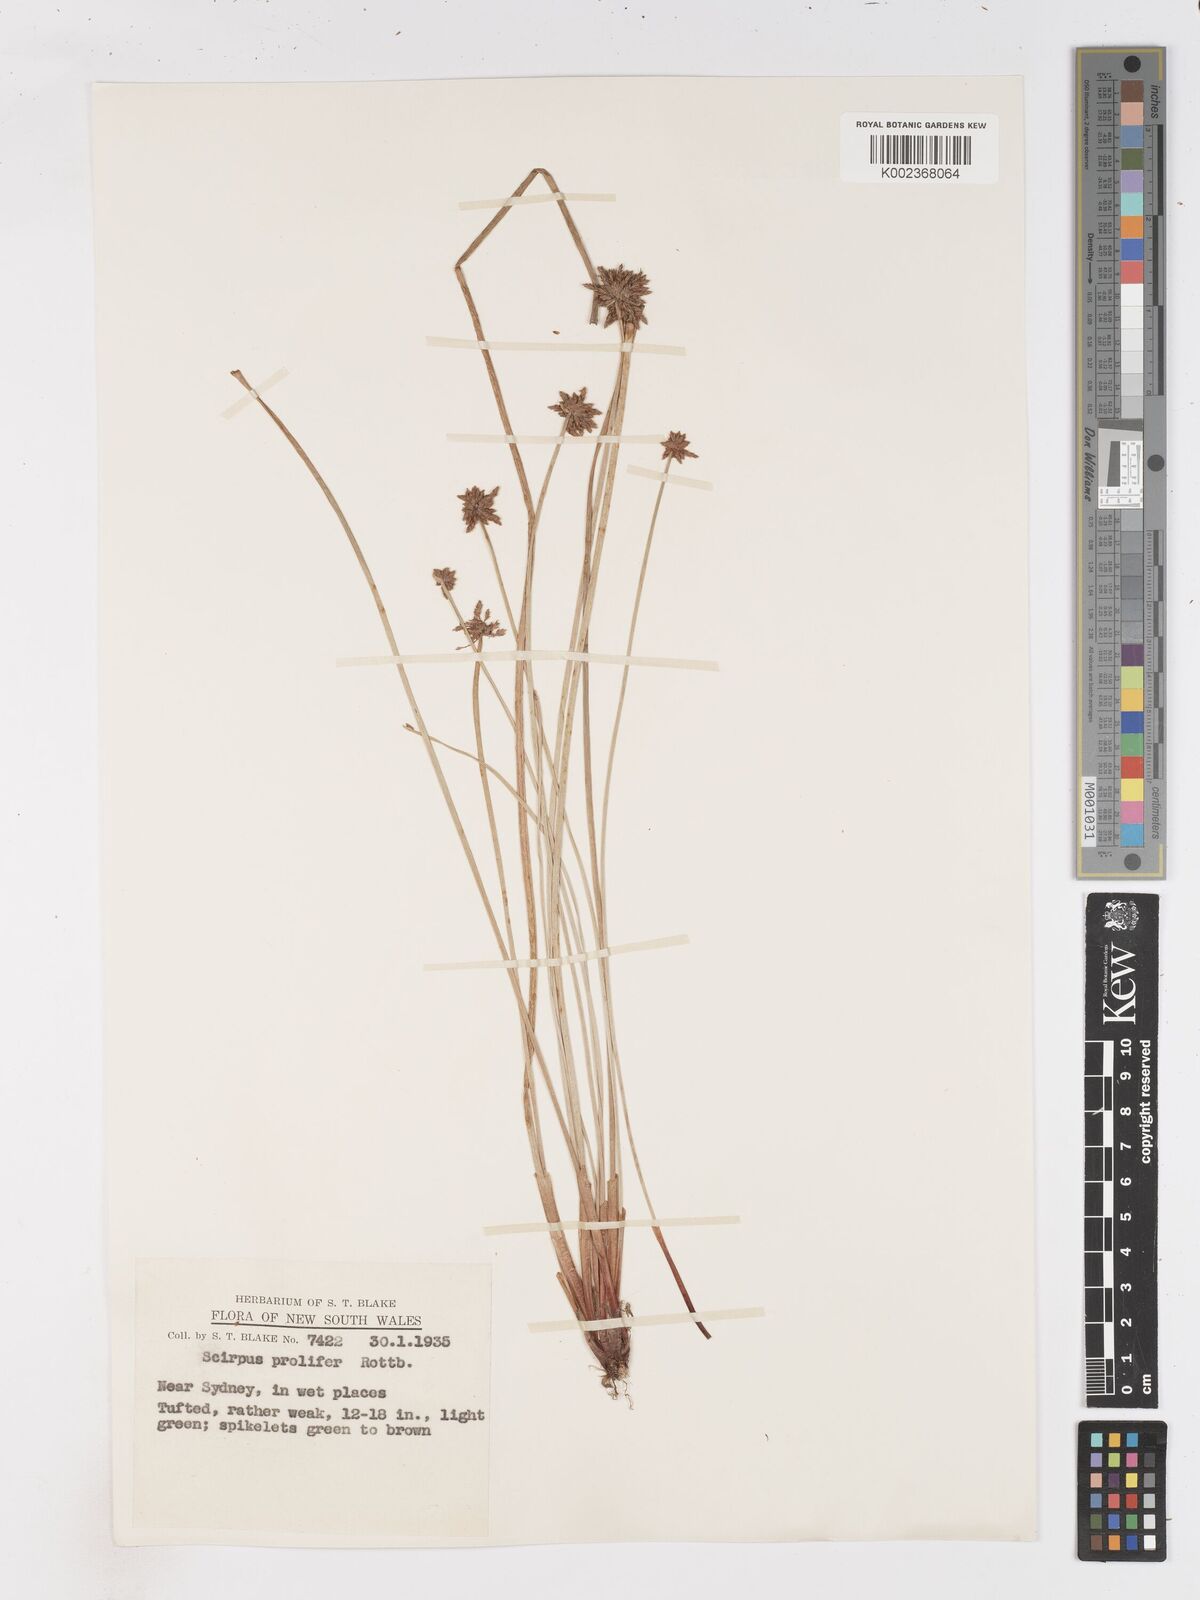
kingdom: Plantae
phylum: Tracheophyta
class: Liliopsida
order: Poales
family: Cyperaceae
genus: Isolepis
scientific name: Isolepis prolifera
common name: Proliferating bulrush
